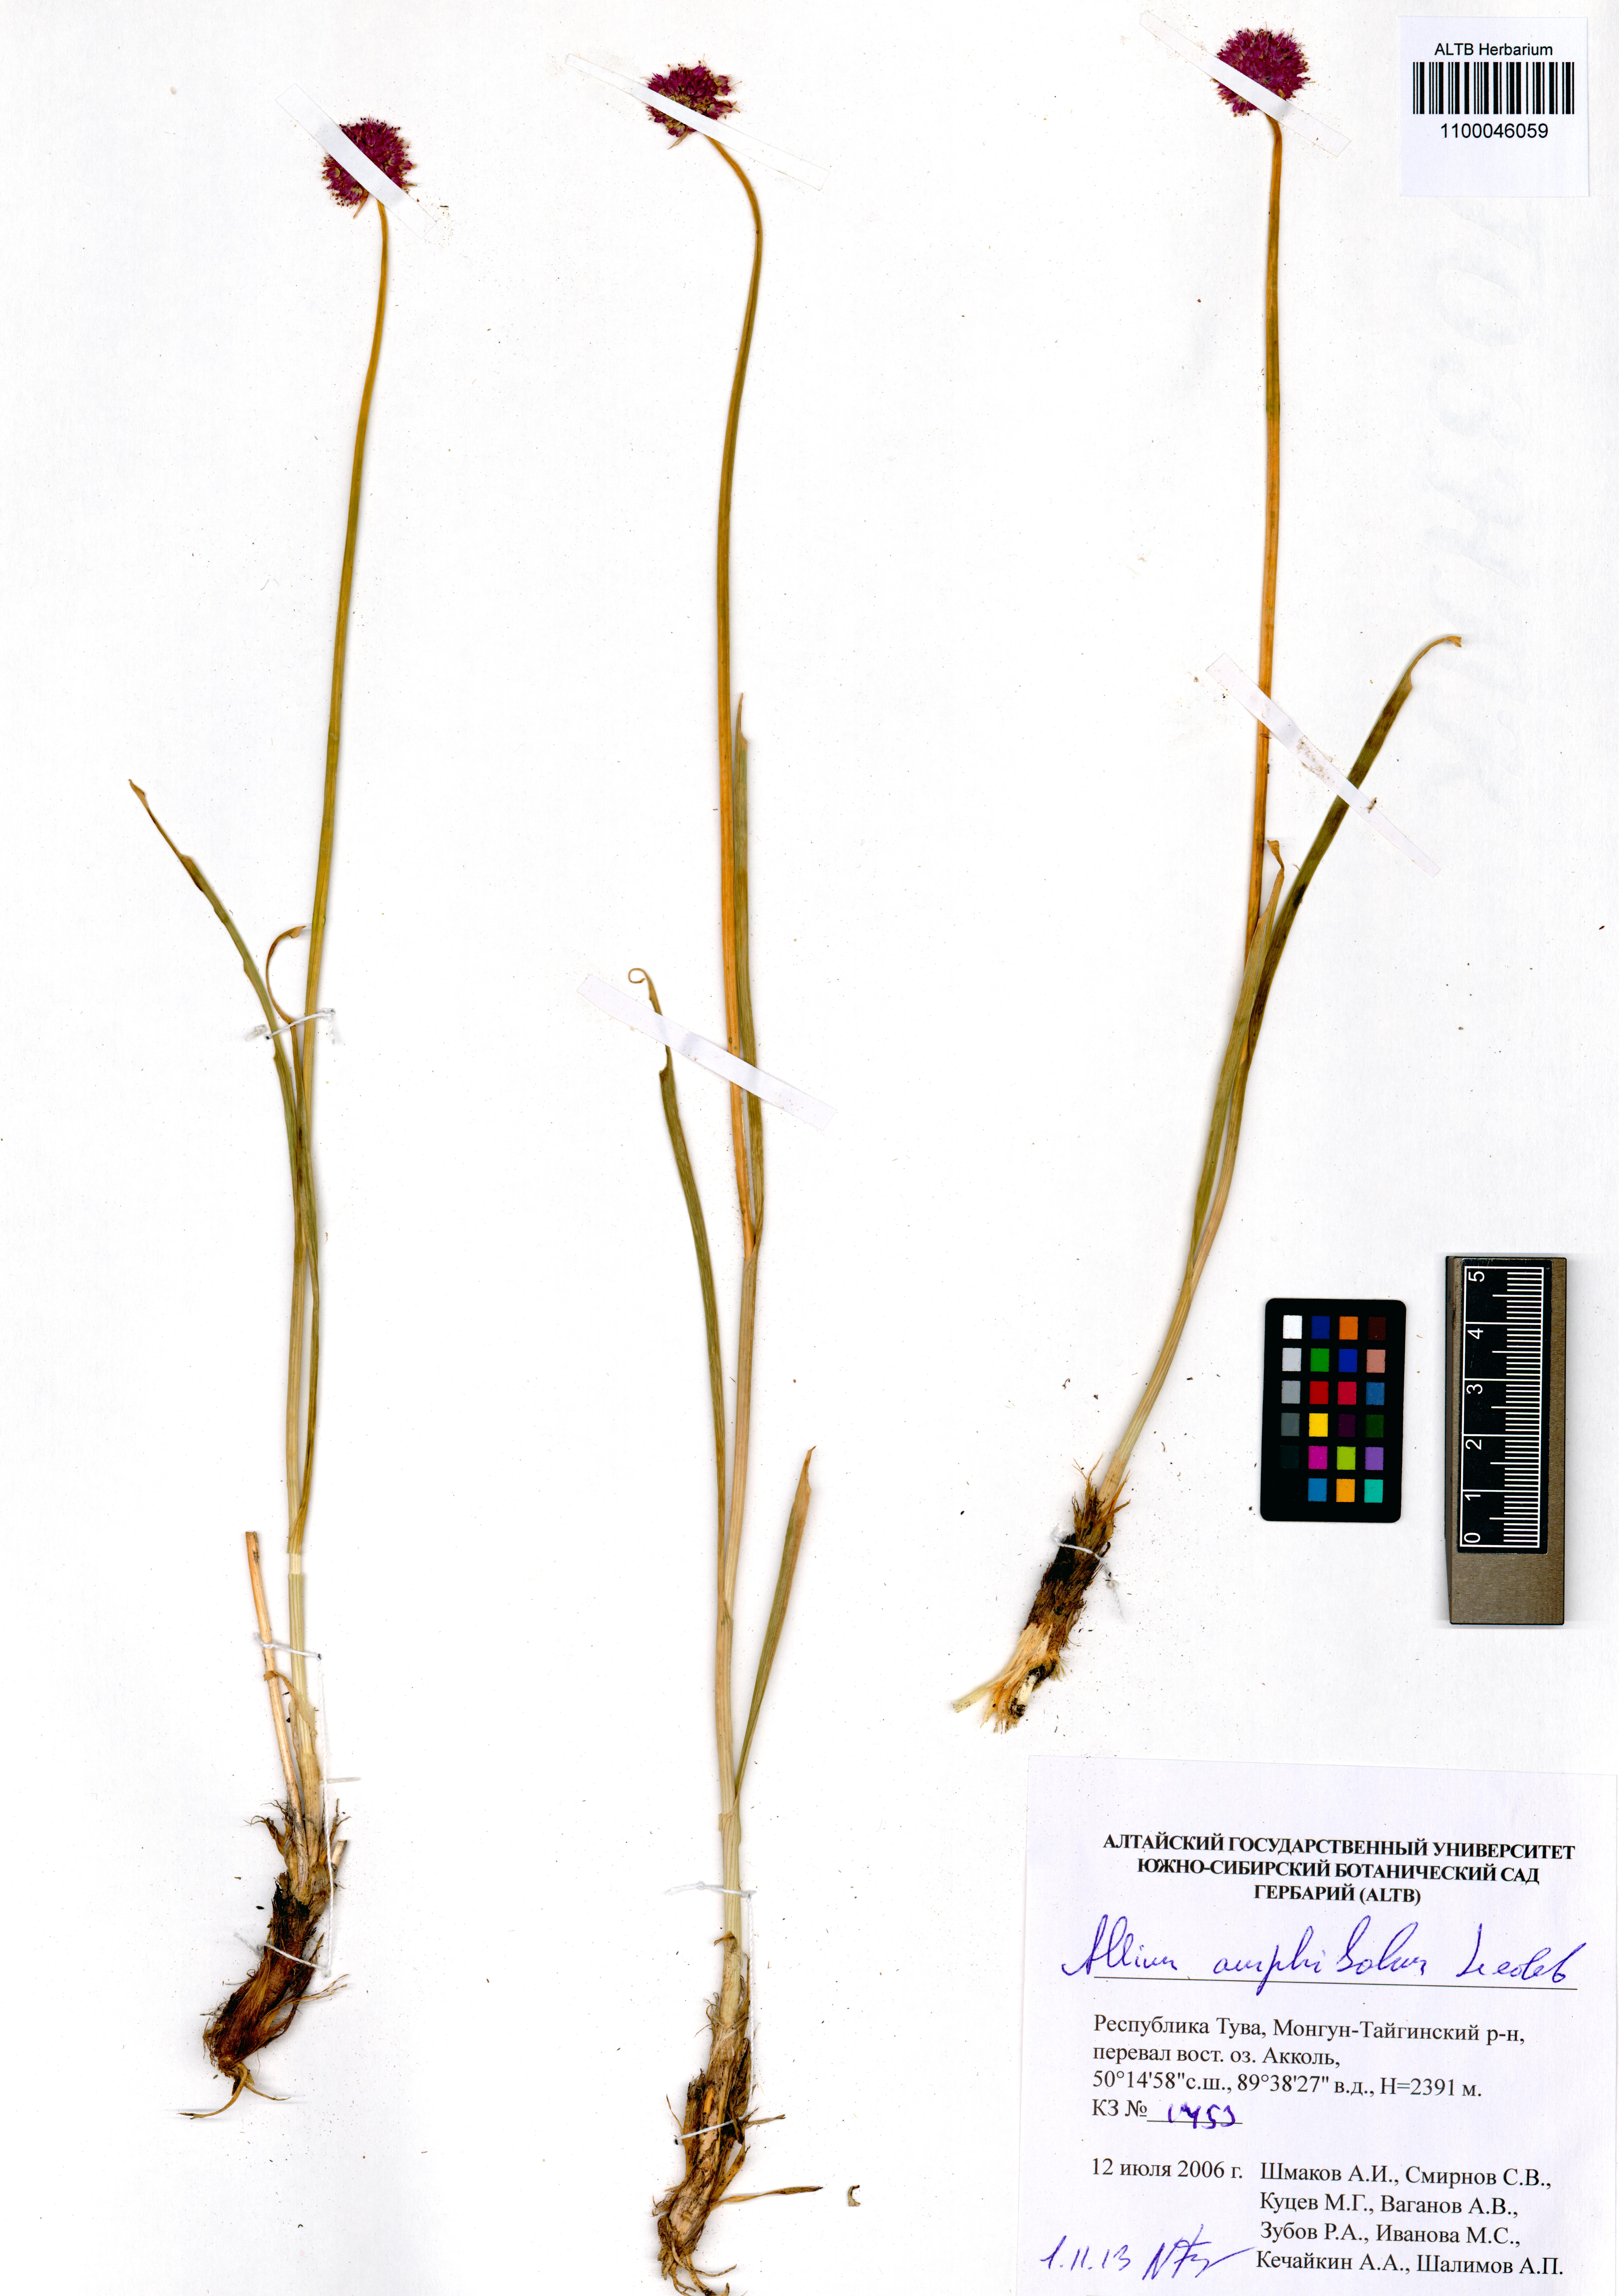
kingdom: Plantae
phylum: Tracheophyta
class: Liliopsida
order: Asparagales
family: Amaryllidaceae
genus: Allium
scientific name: Allium amphibolum
